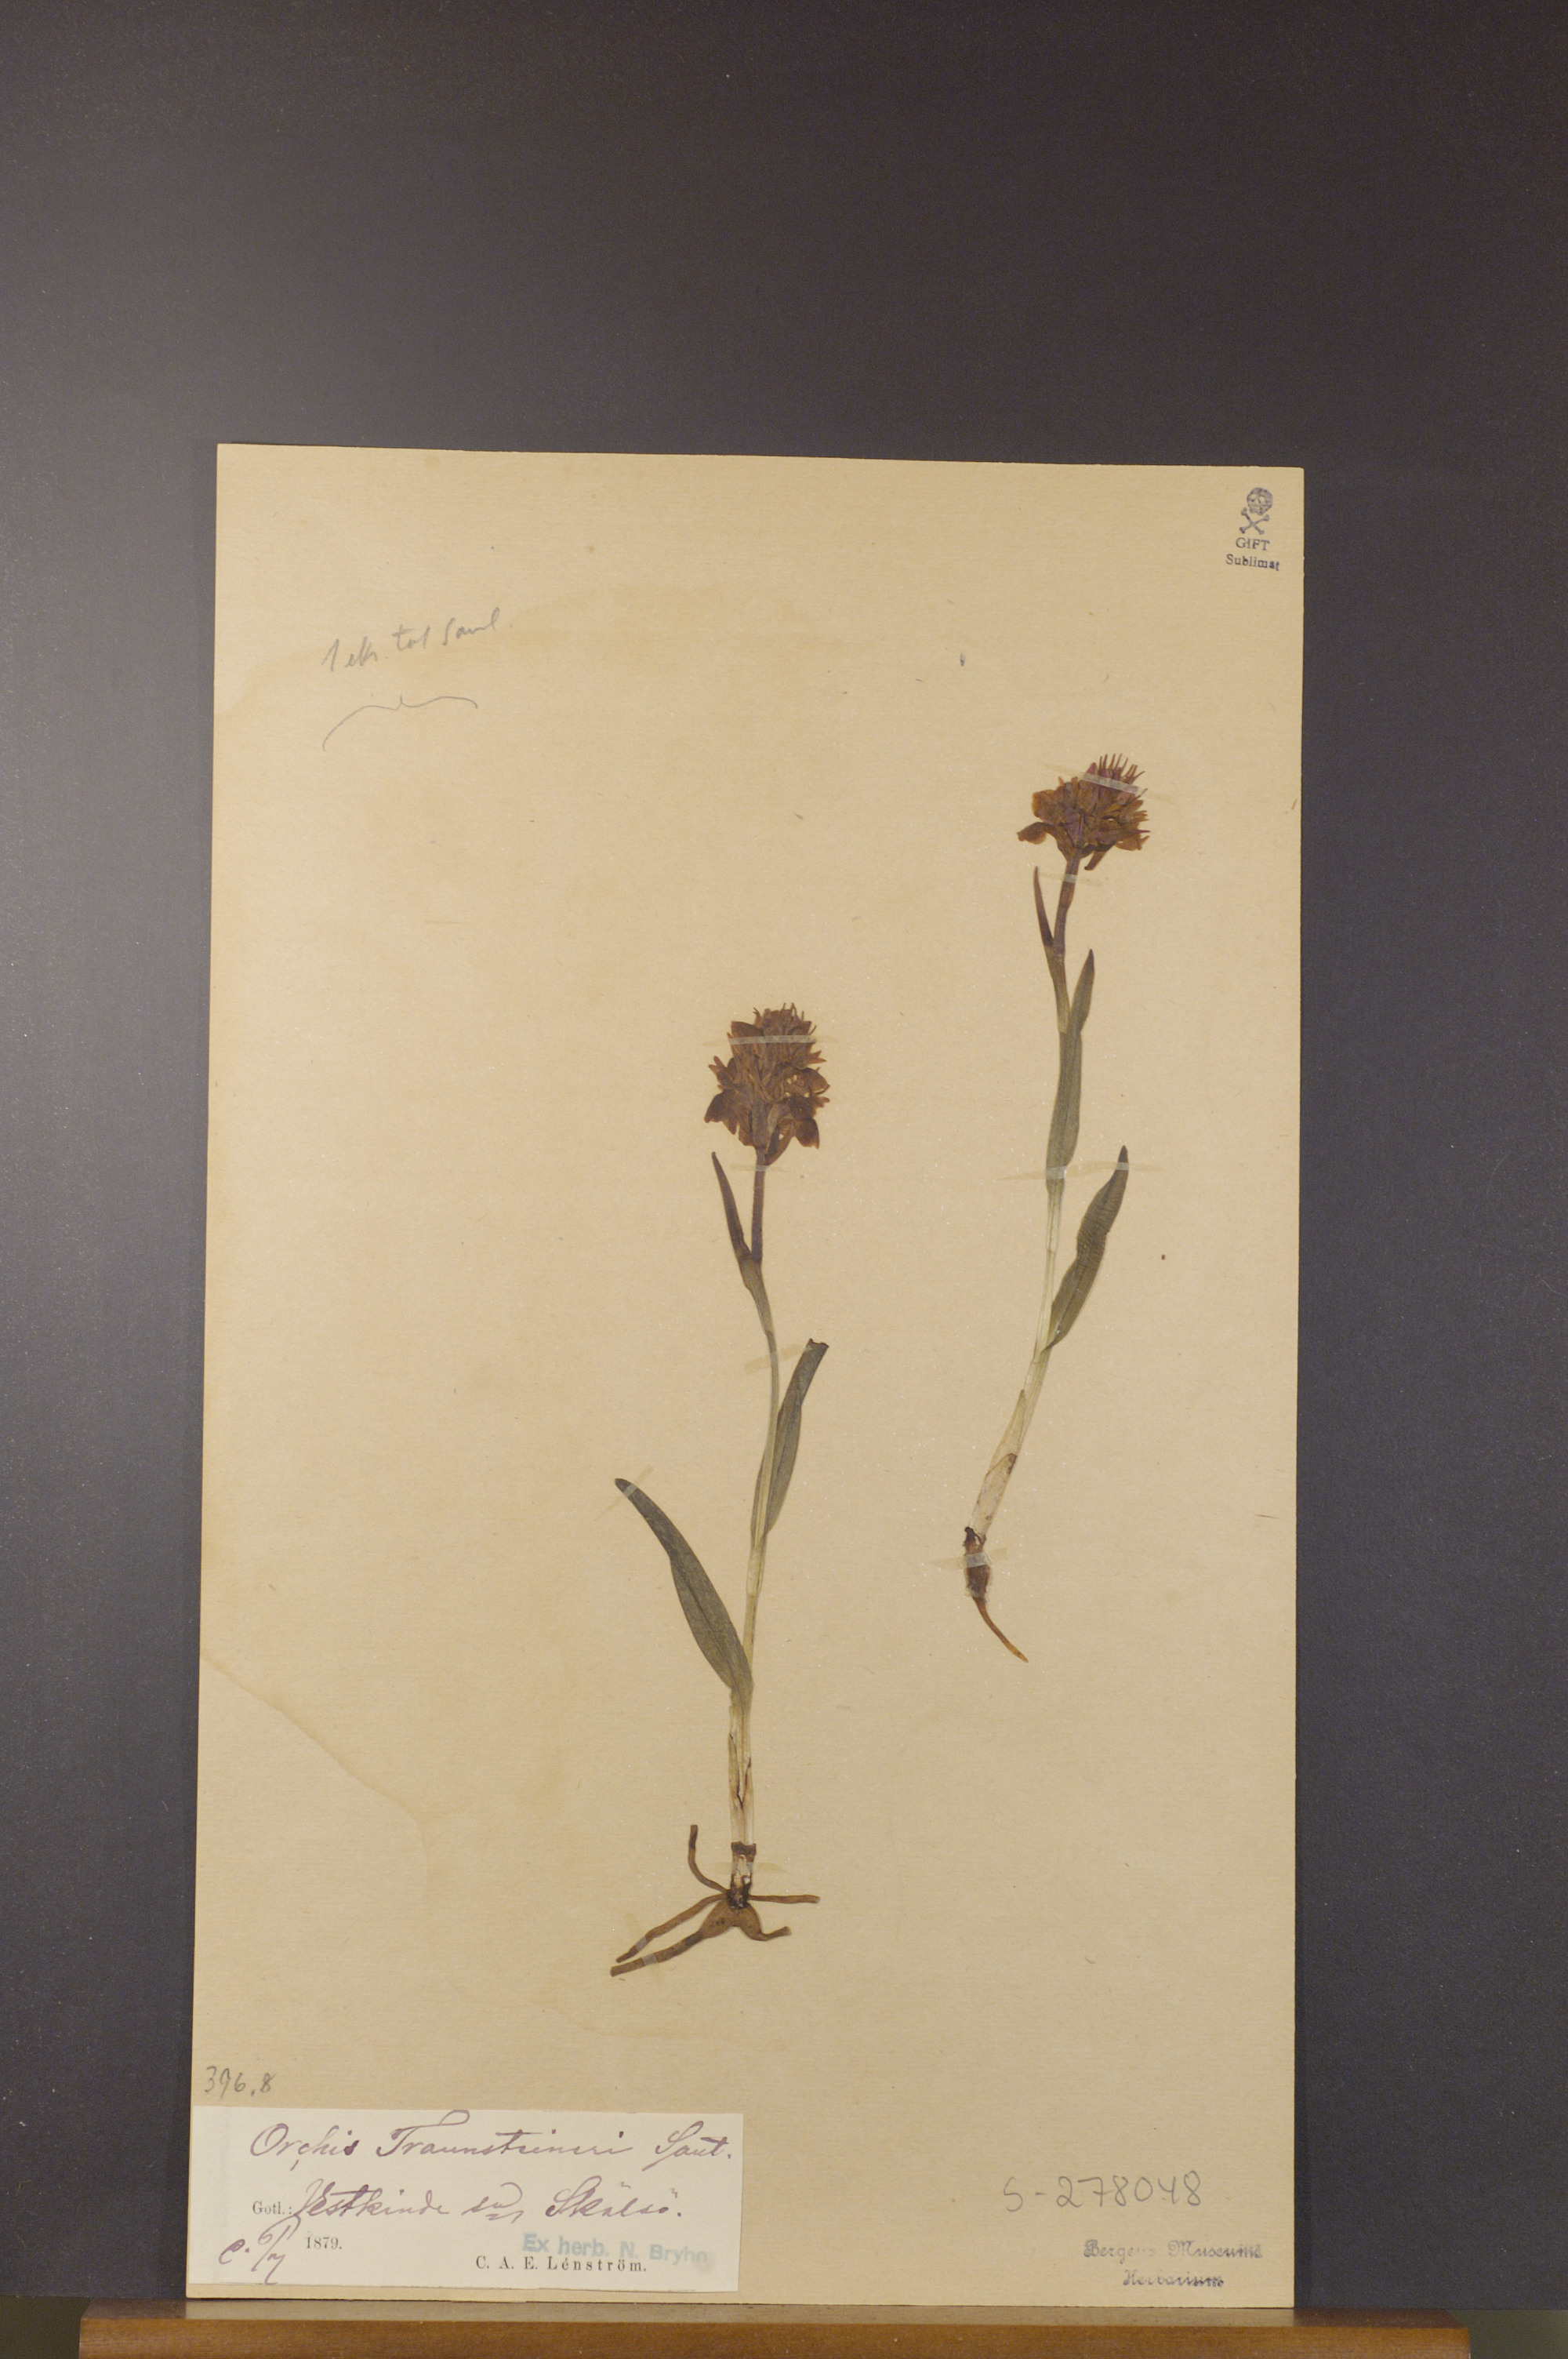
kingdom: Plantae
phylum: Tracheophyta
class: Liliopsida
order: Asparagales
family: Orchidaceae
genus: Dactylorhiza
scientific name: Dactylorhiza majalis
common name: Marsh orchid
